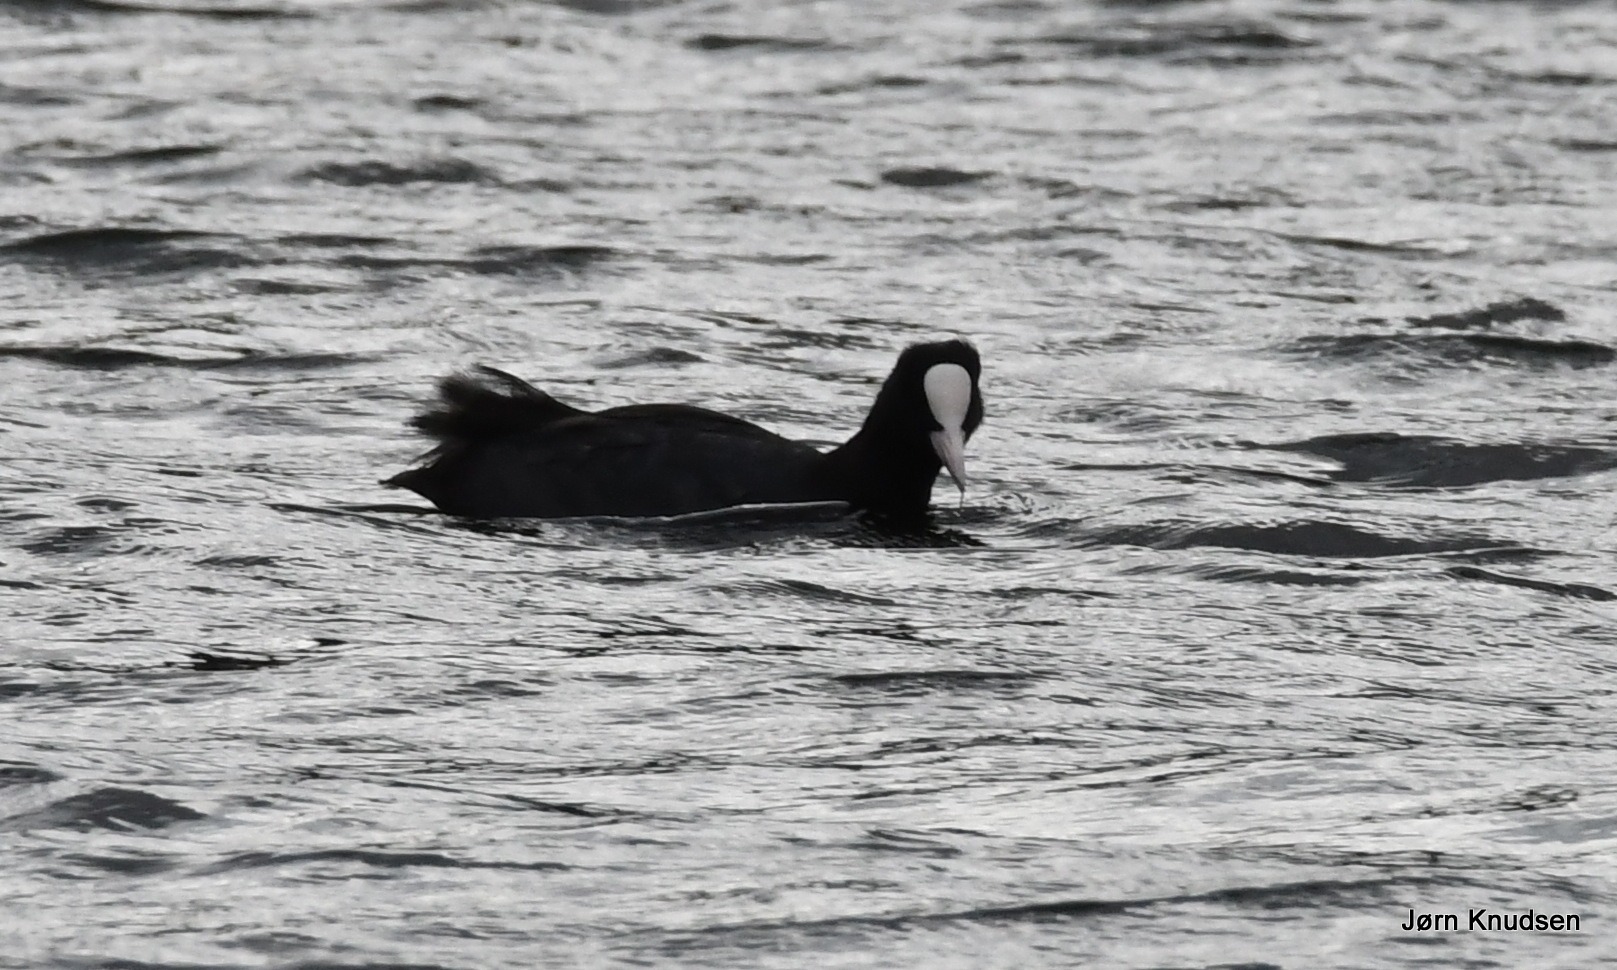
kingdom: Animalia
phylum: Chordata
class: Aves
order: Gruiformes
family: Rallidae
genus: Fulica
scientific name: Fulica atra
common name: Blishøne
